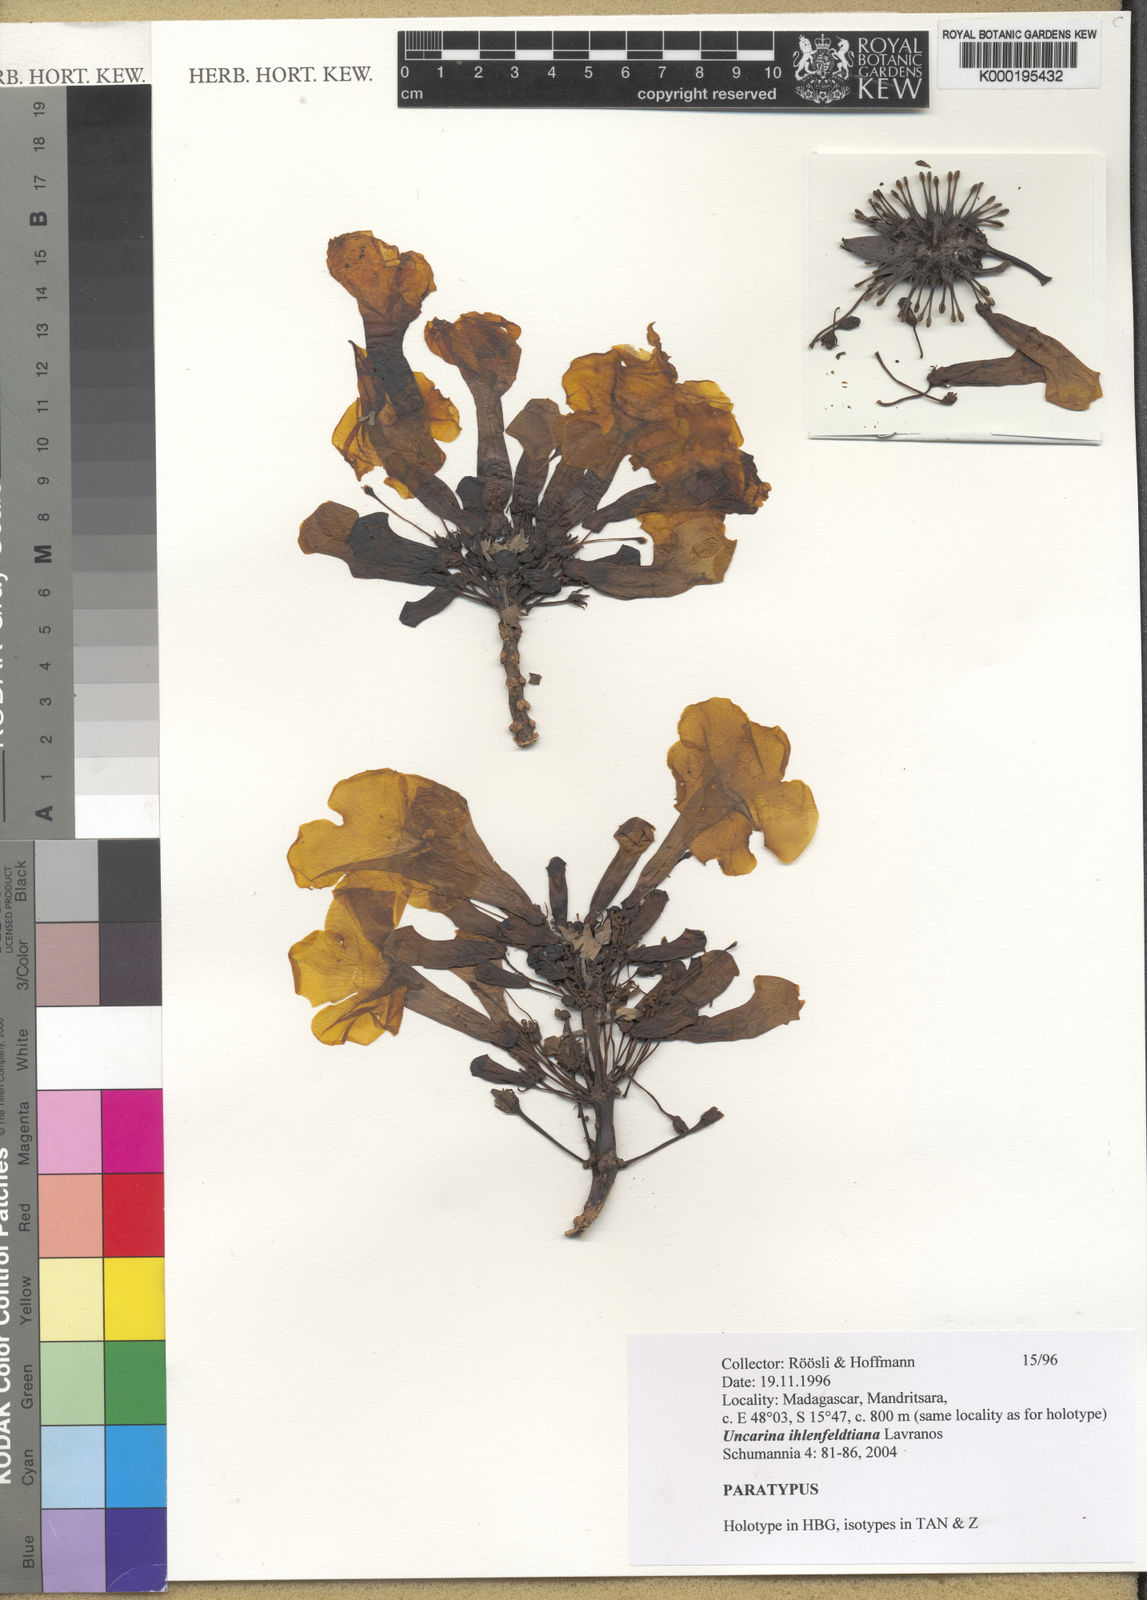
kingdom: Plantae
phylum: Tracheophyta
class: Magnoliopsida
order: Lamiales
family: Pedaliaceae
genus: Uncarina
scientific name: Uncarina ihlenfeldtiana
